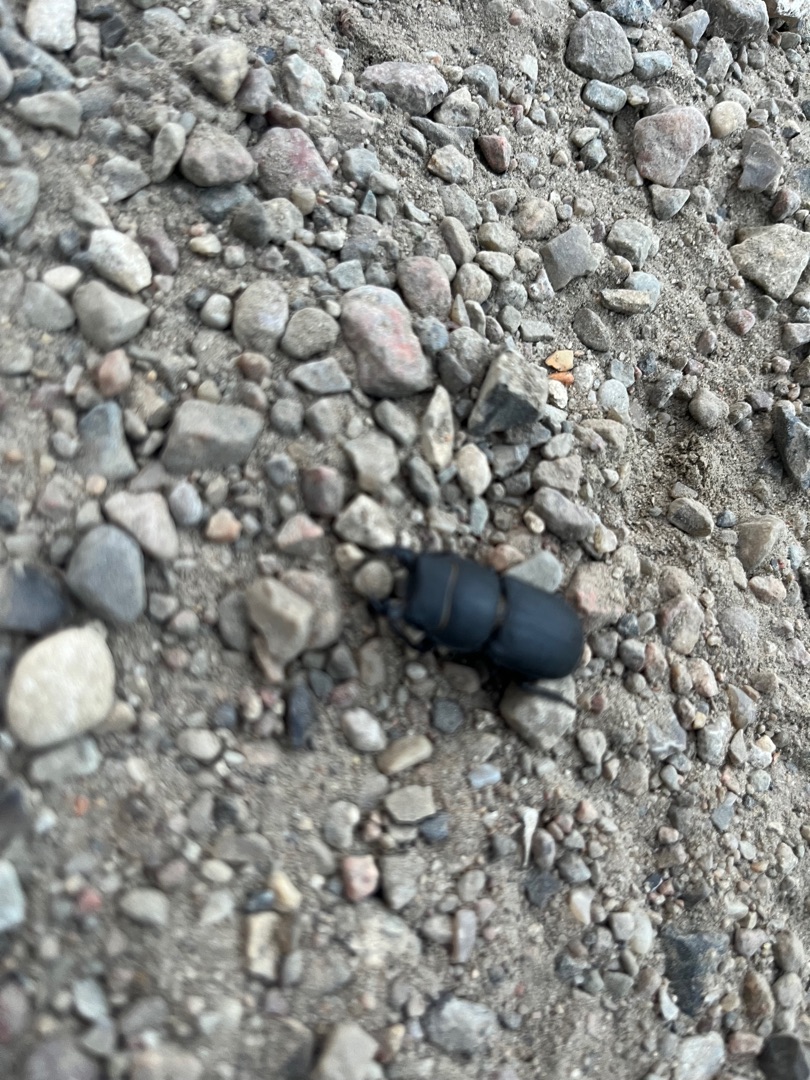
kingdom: Animalia
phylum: Arthropoda
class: Insecta
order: Coleoptera
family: Lucanidae
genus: Dorcus
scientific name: Dorcus parallelipipedus
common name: Bøghjort
